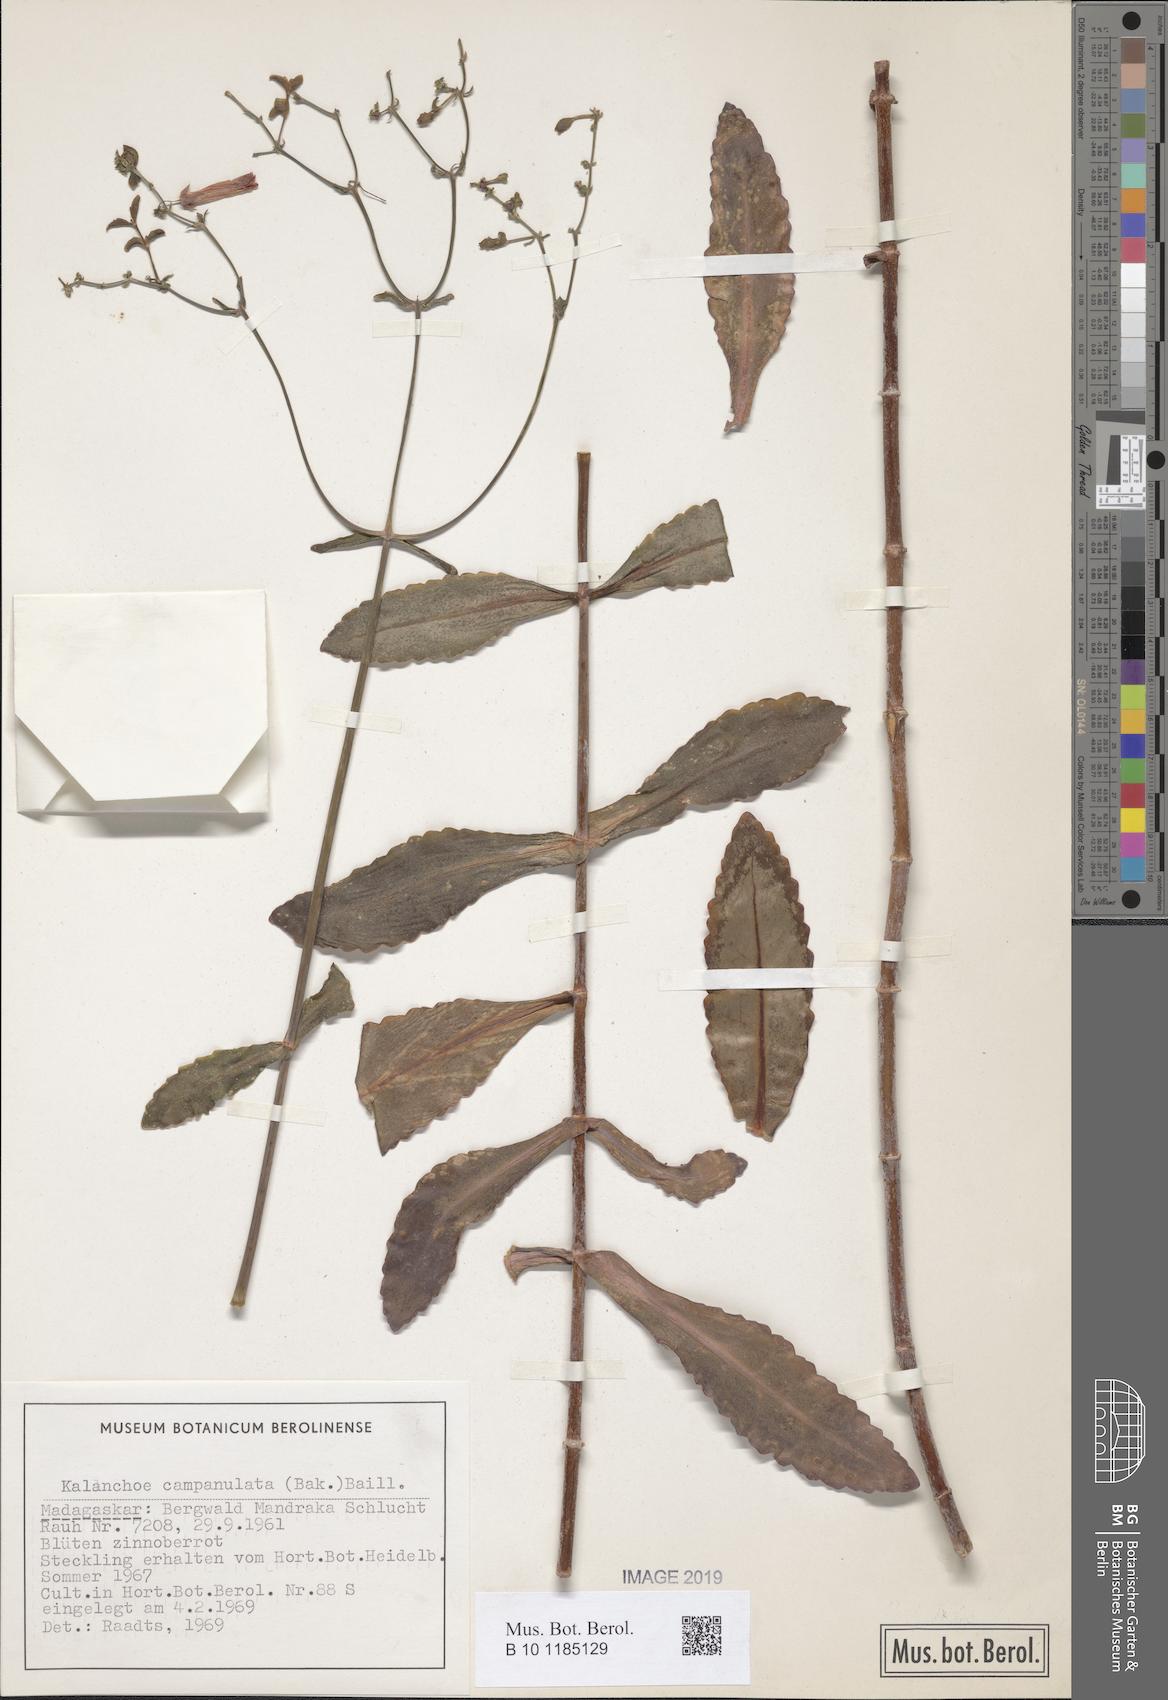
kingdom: Plantae
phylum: Tracheophyta
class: Magnoliopsida
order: Saxifragales
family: Crassulaceae
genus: Kalanchoe
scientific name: Kalanchoe campanulata
